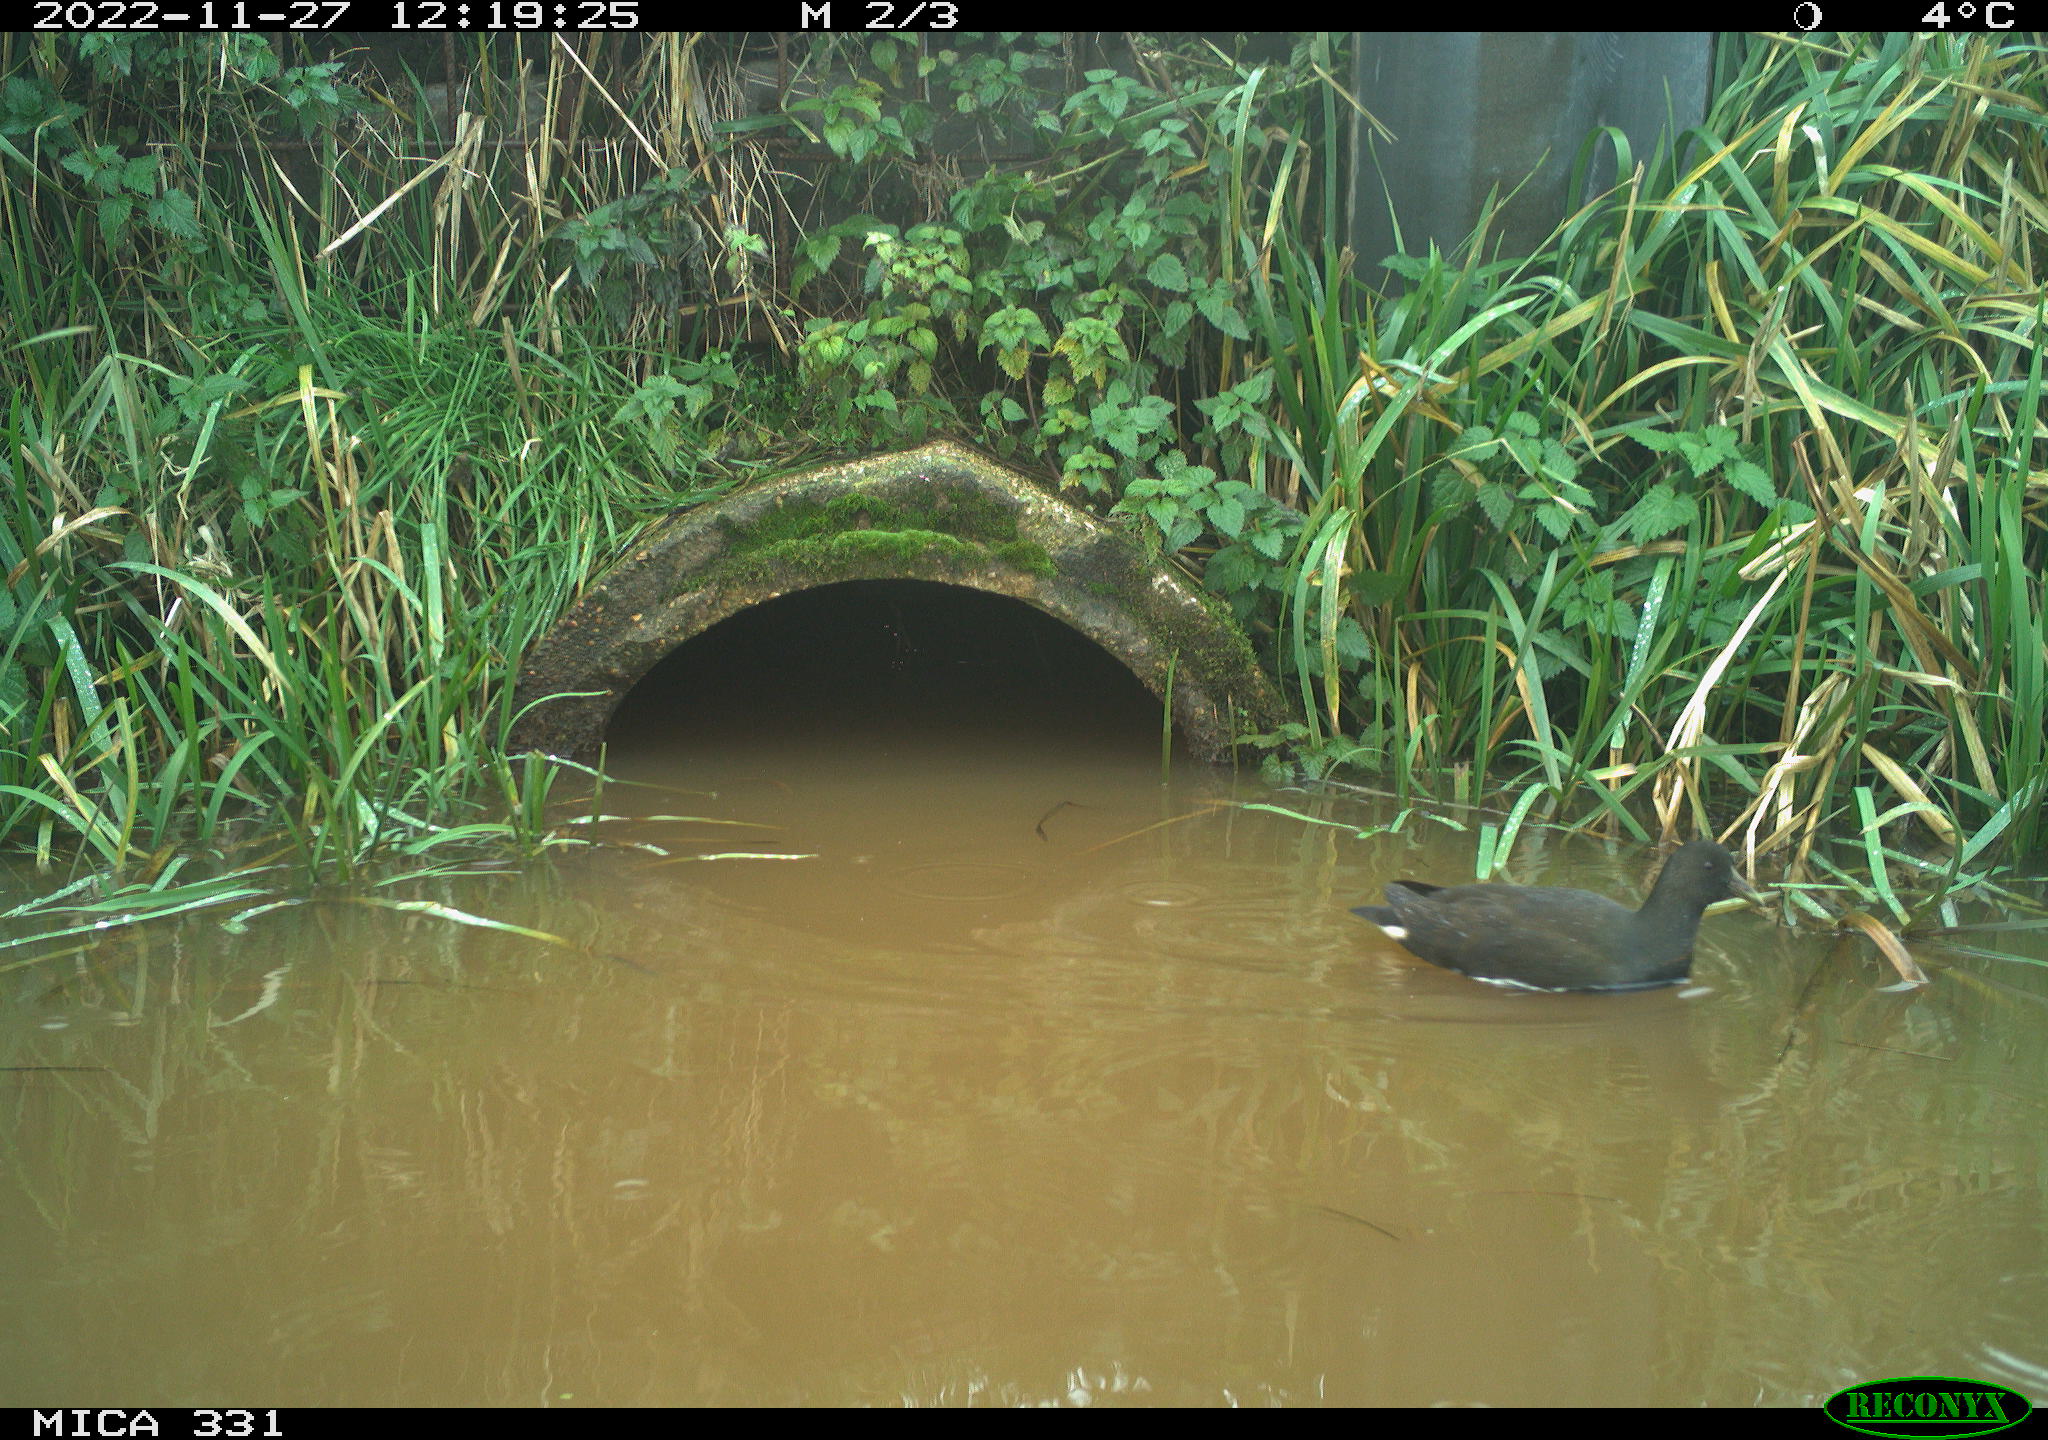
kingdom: Animalia
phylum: Chordata
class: Aves
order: Gruiformes
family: Rallidae
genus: Gallinula
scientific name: Gallinula chloropus
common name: Common moorhen
